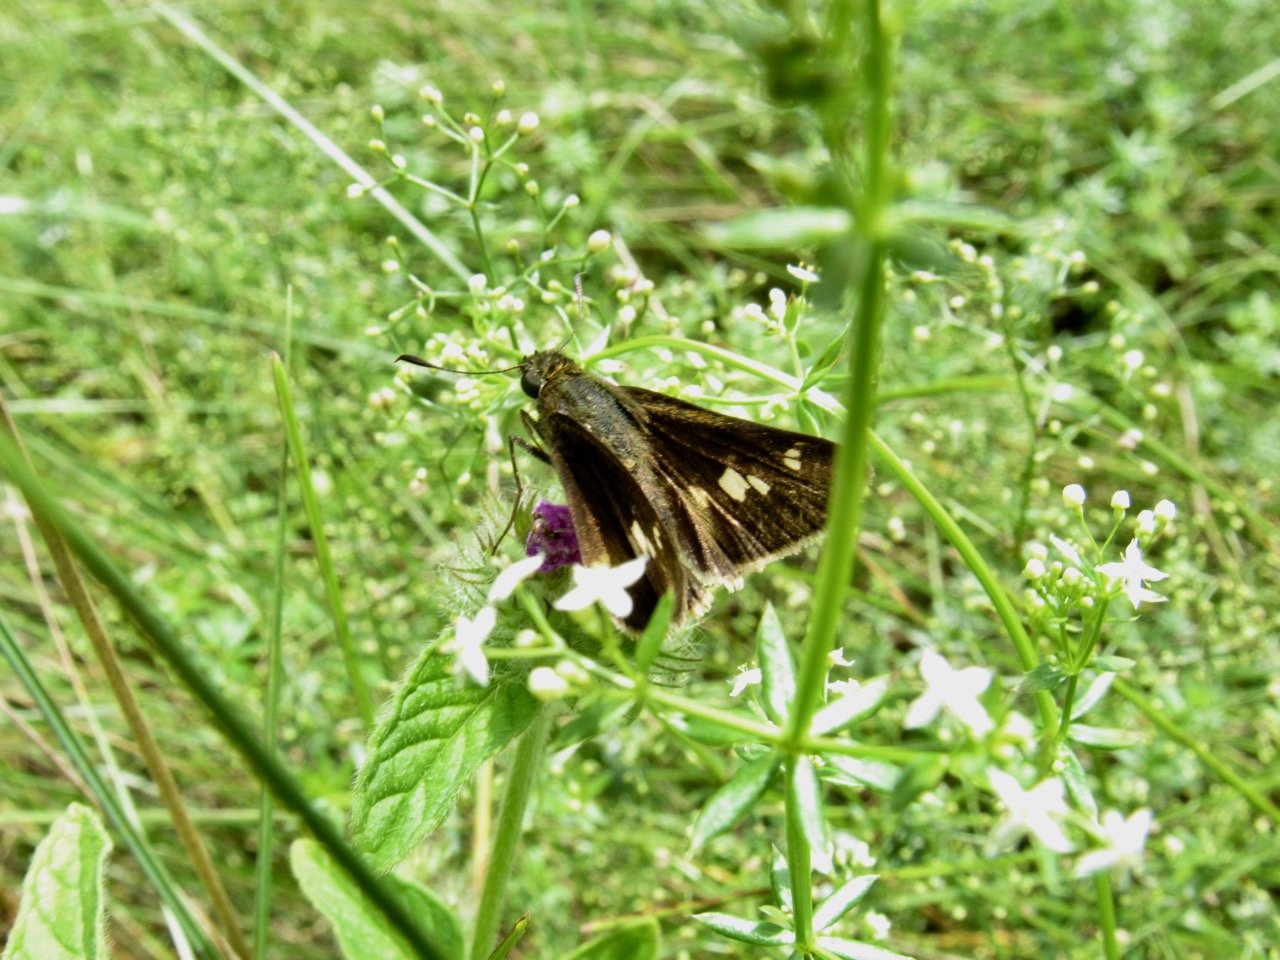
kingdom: Animalia
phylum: Arthropoda
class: Insecta
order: Lepidoptera
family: Hesperiidae
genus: Vernia
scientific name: Vernia verna
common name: Little Glassywing
